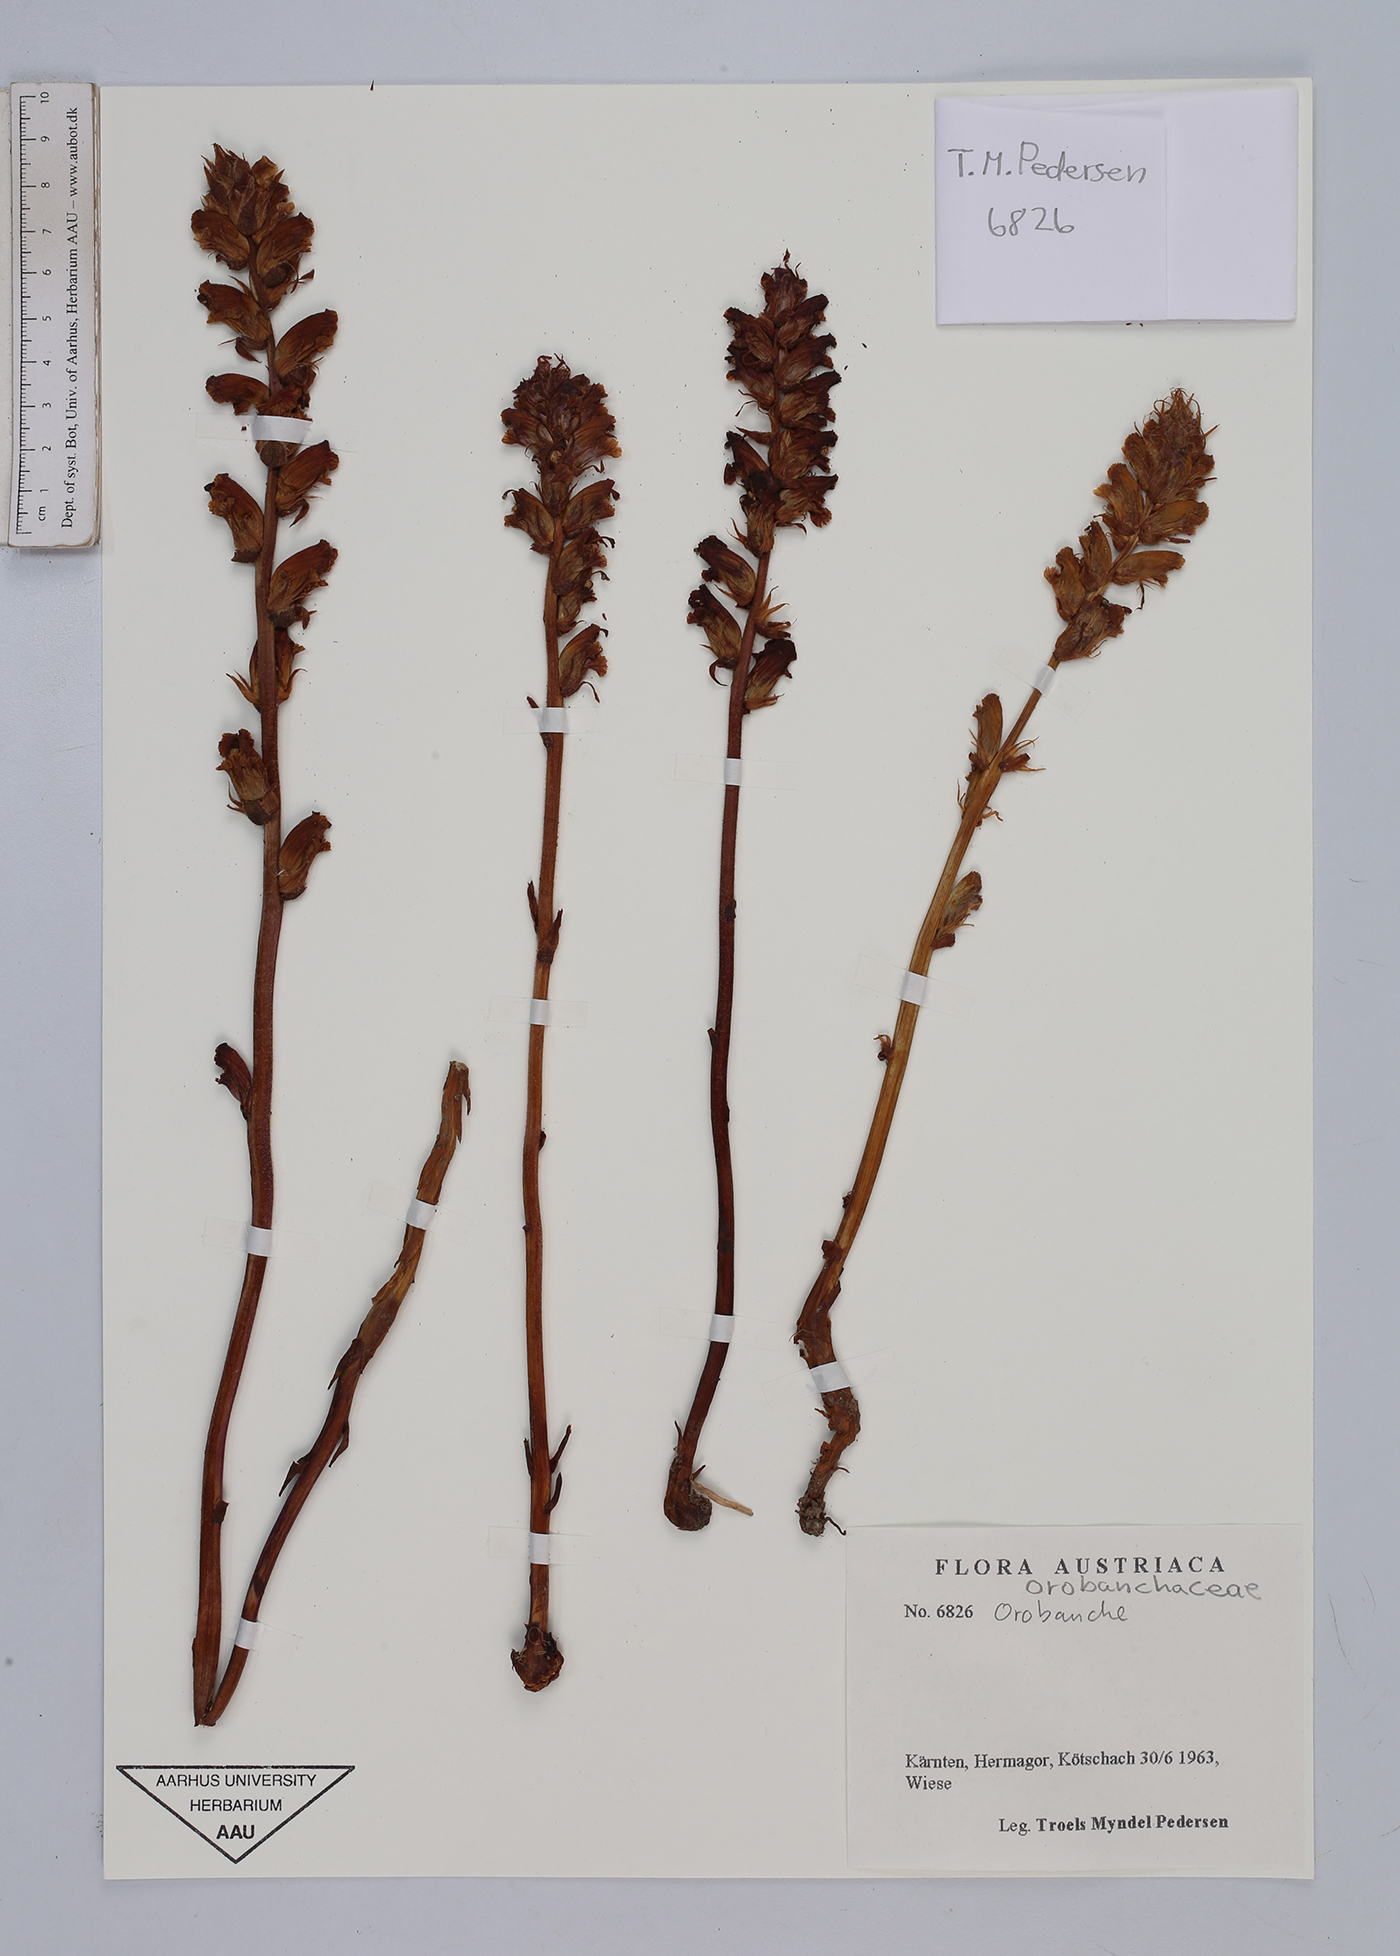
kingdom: Plantae
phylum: Tracheophyta
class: Magnoliopsida
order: Lamiales
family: Orobanchaceae
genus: Orobanche
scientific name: Orobanche
